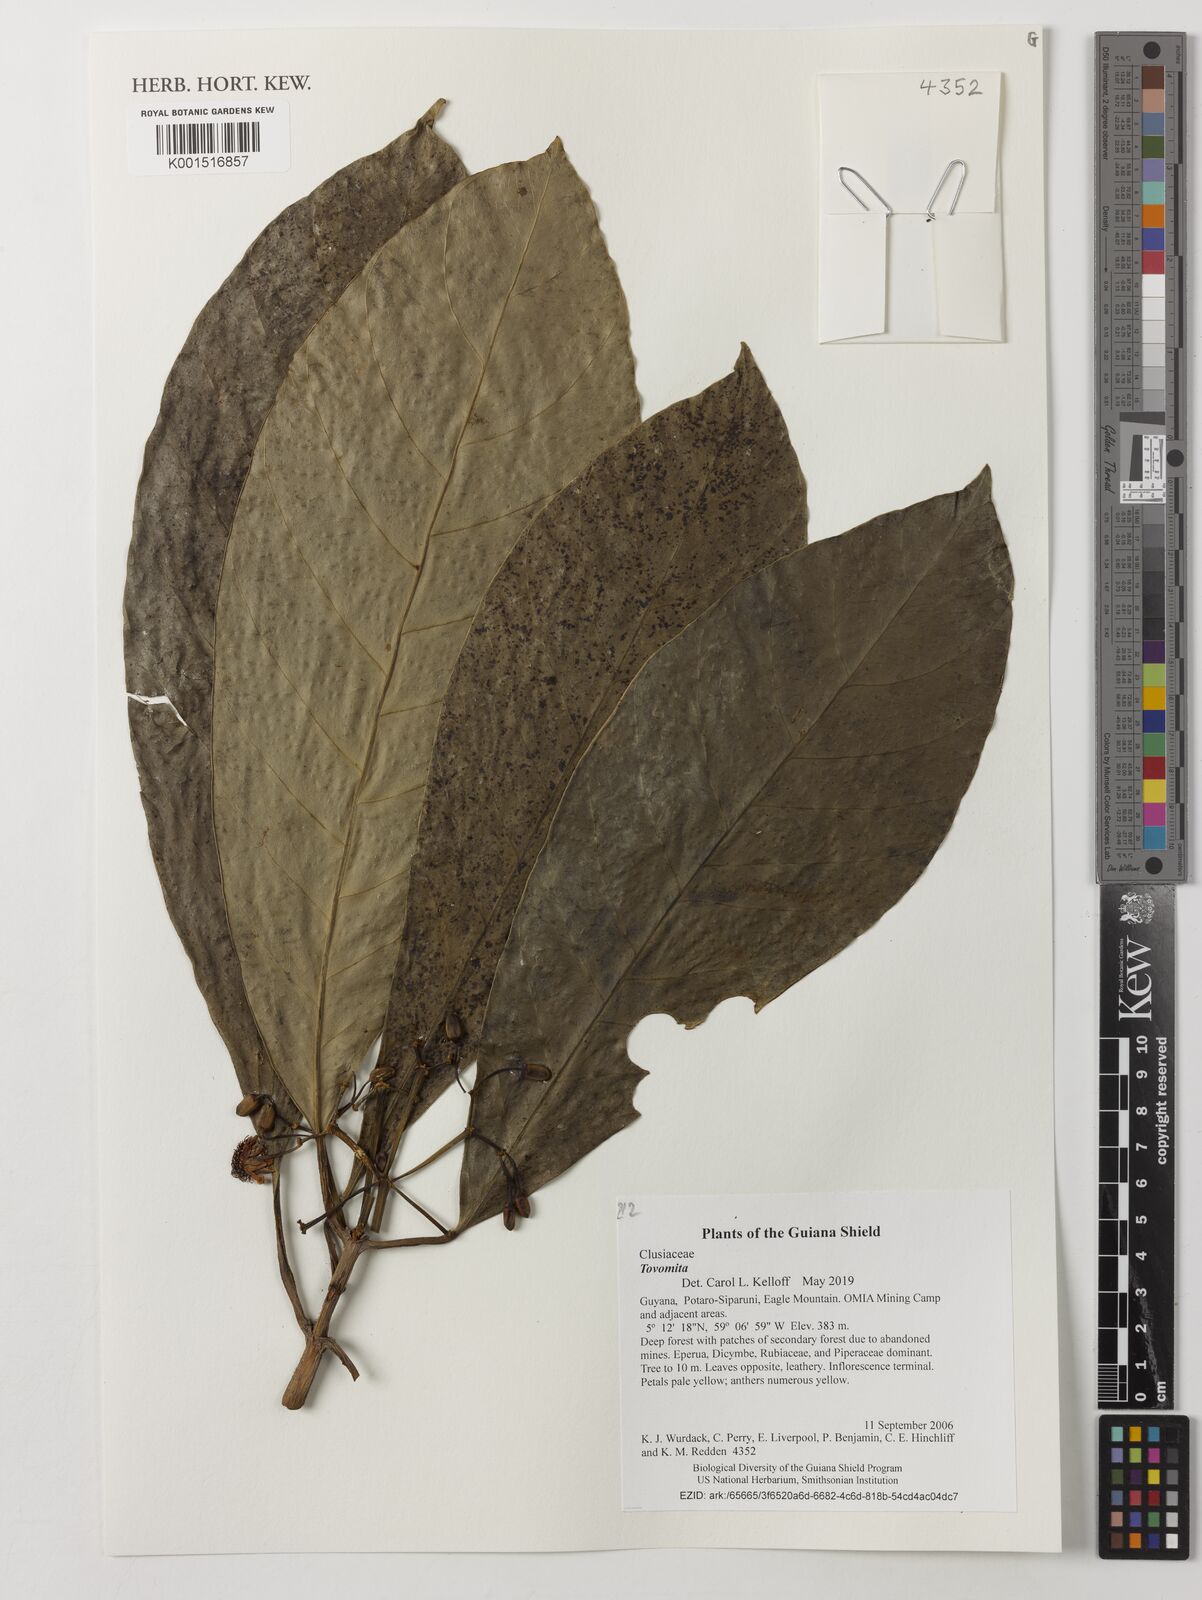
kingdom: Plantae
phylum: Tracheophyta
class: Magnoliopsida
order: Malpighiales
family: Clusiaceae
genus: Tovomita
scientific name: Tovomita
